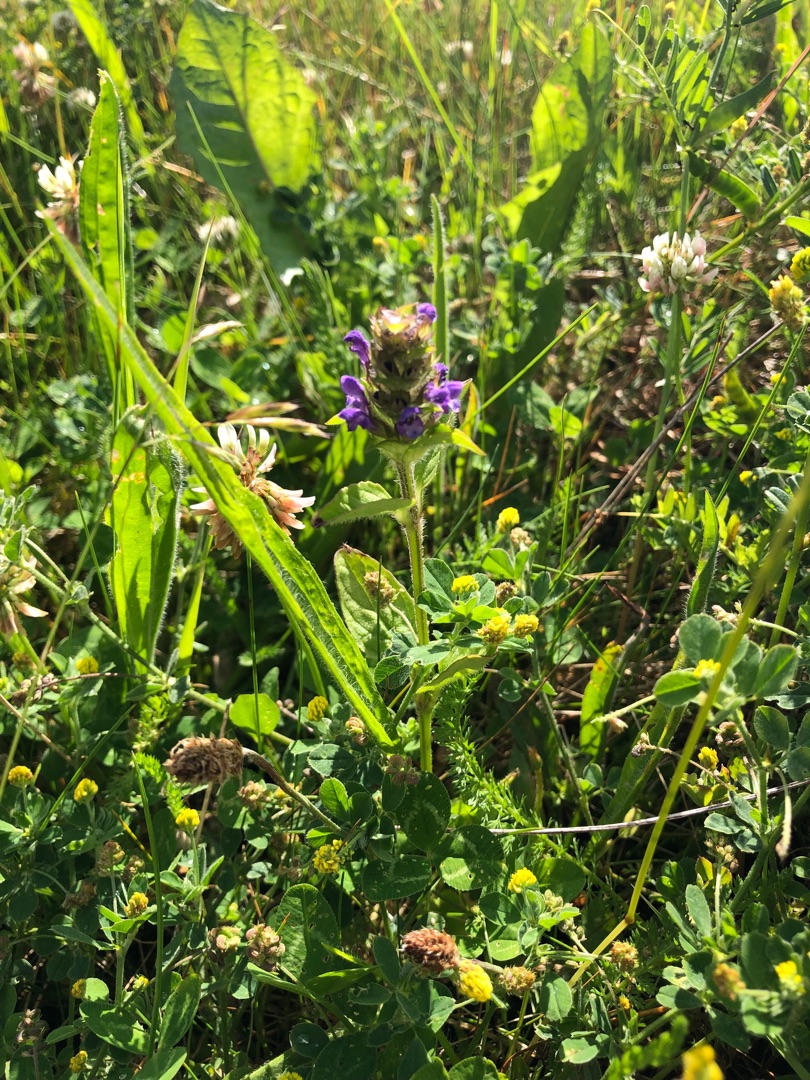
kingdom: Plantae
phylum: Tracheophyta
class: Magnoliopsida
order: Lamiales
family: Lamiaceae
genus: Prunella
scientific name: Prunella vulgaris
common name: Almindelig brunelle
